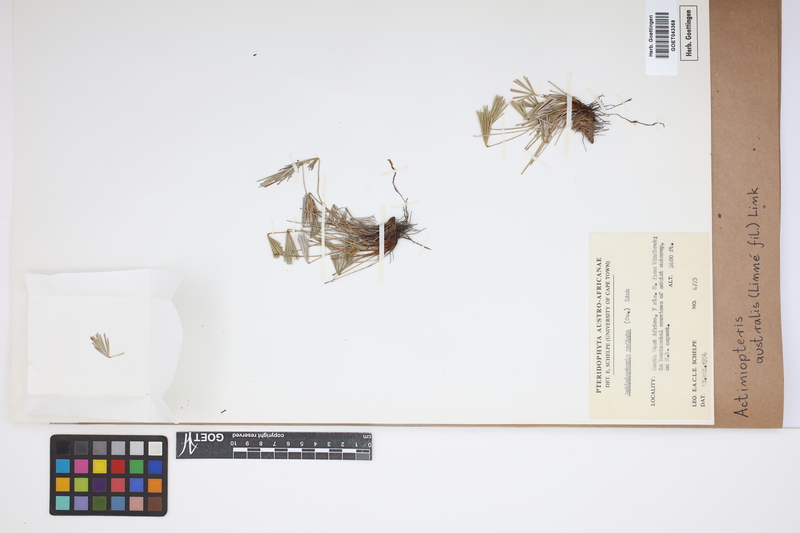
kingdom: Plantae
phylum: Tracheophyta
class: Polypodiopsida
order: Polypodiales
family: Pteridaceae
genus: Actiniopteris
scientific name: Actiniopteris australis
